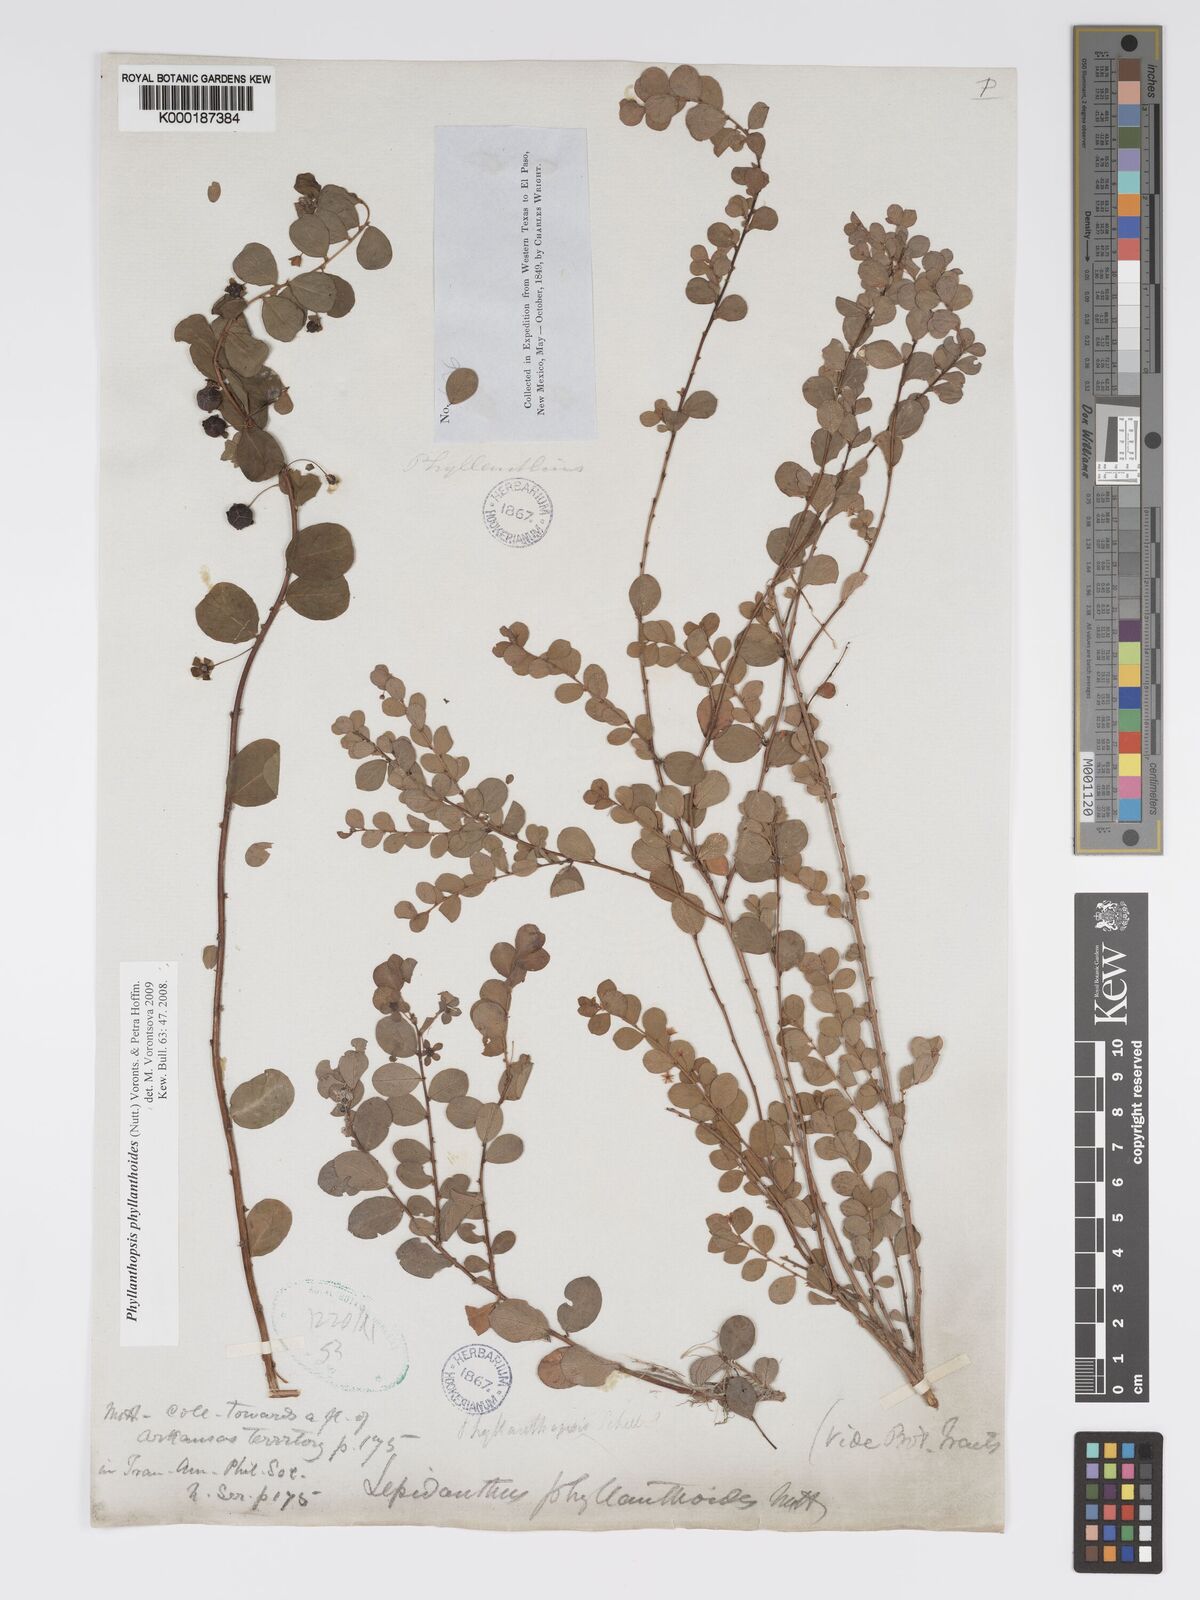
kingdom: Plantae
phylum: Tracheophyta
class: Magnoliopsida
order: Malpighiales
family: Phyllanthaceae
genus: Andrachne
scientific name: Andrachne
